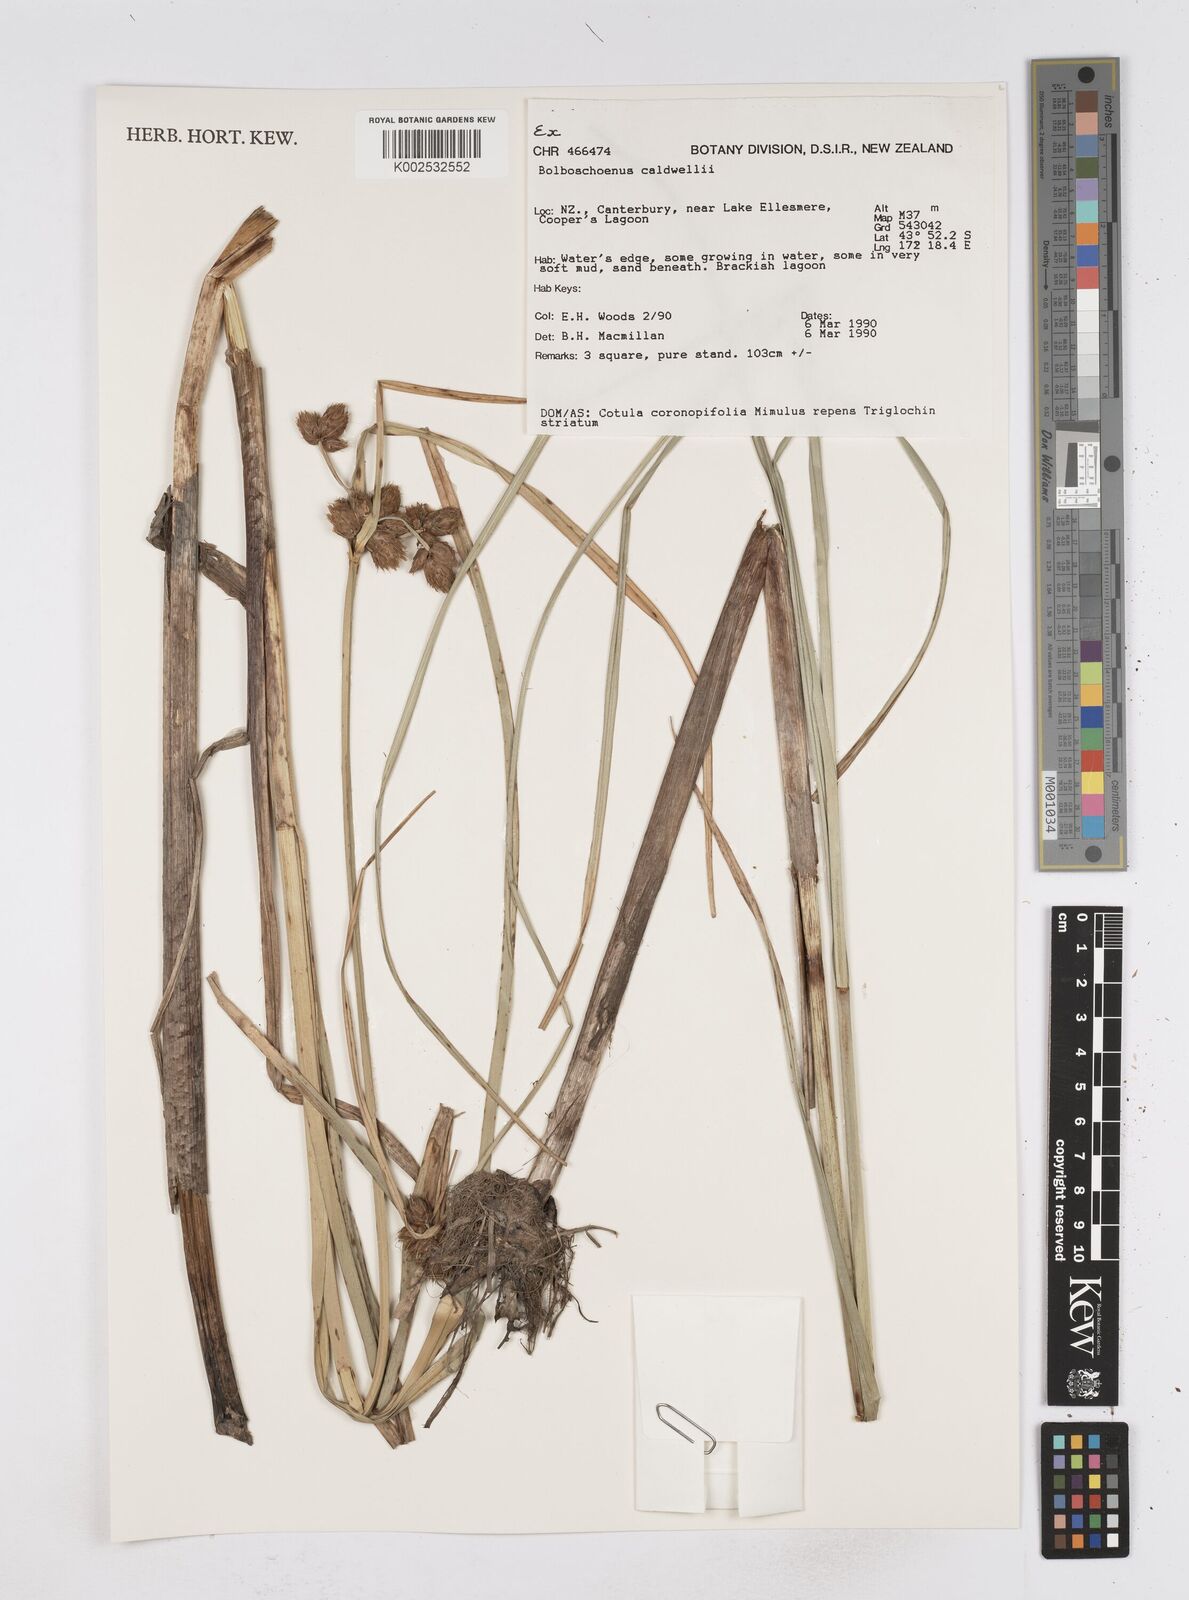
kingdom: Plantae
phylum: Tracheophyta
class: Liliopsida
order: Poales
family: Cyperaceae
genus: Bolboschoenus
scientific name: Bolboschoenus caldwellii
